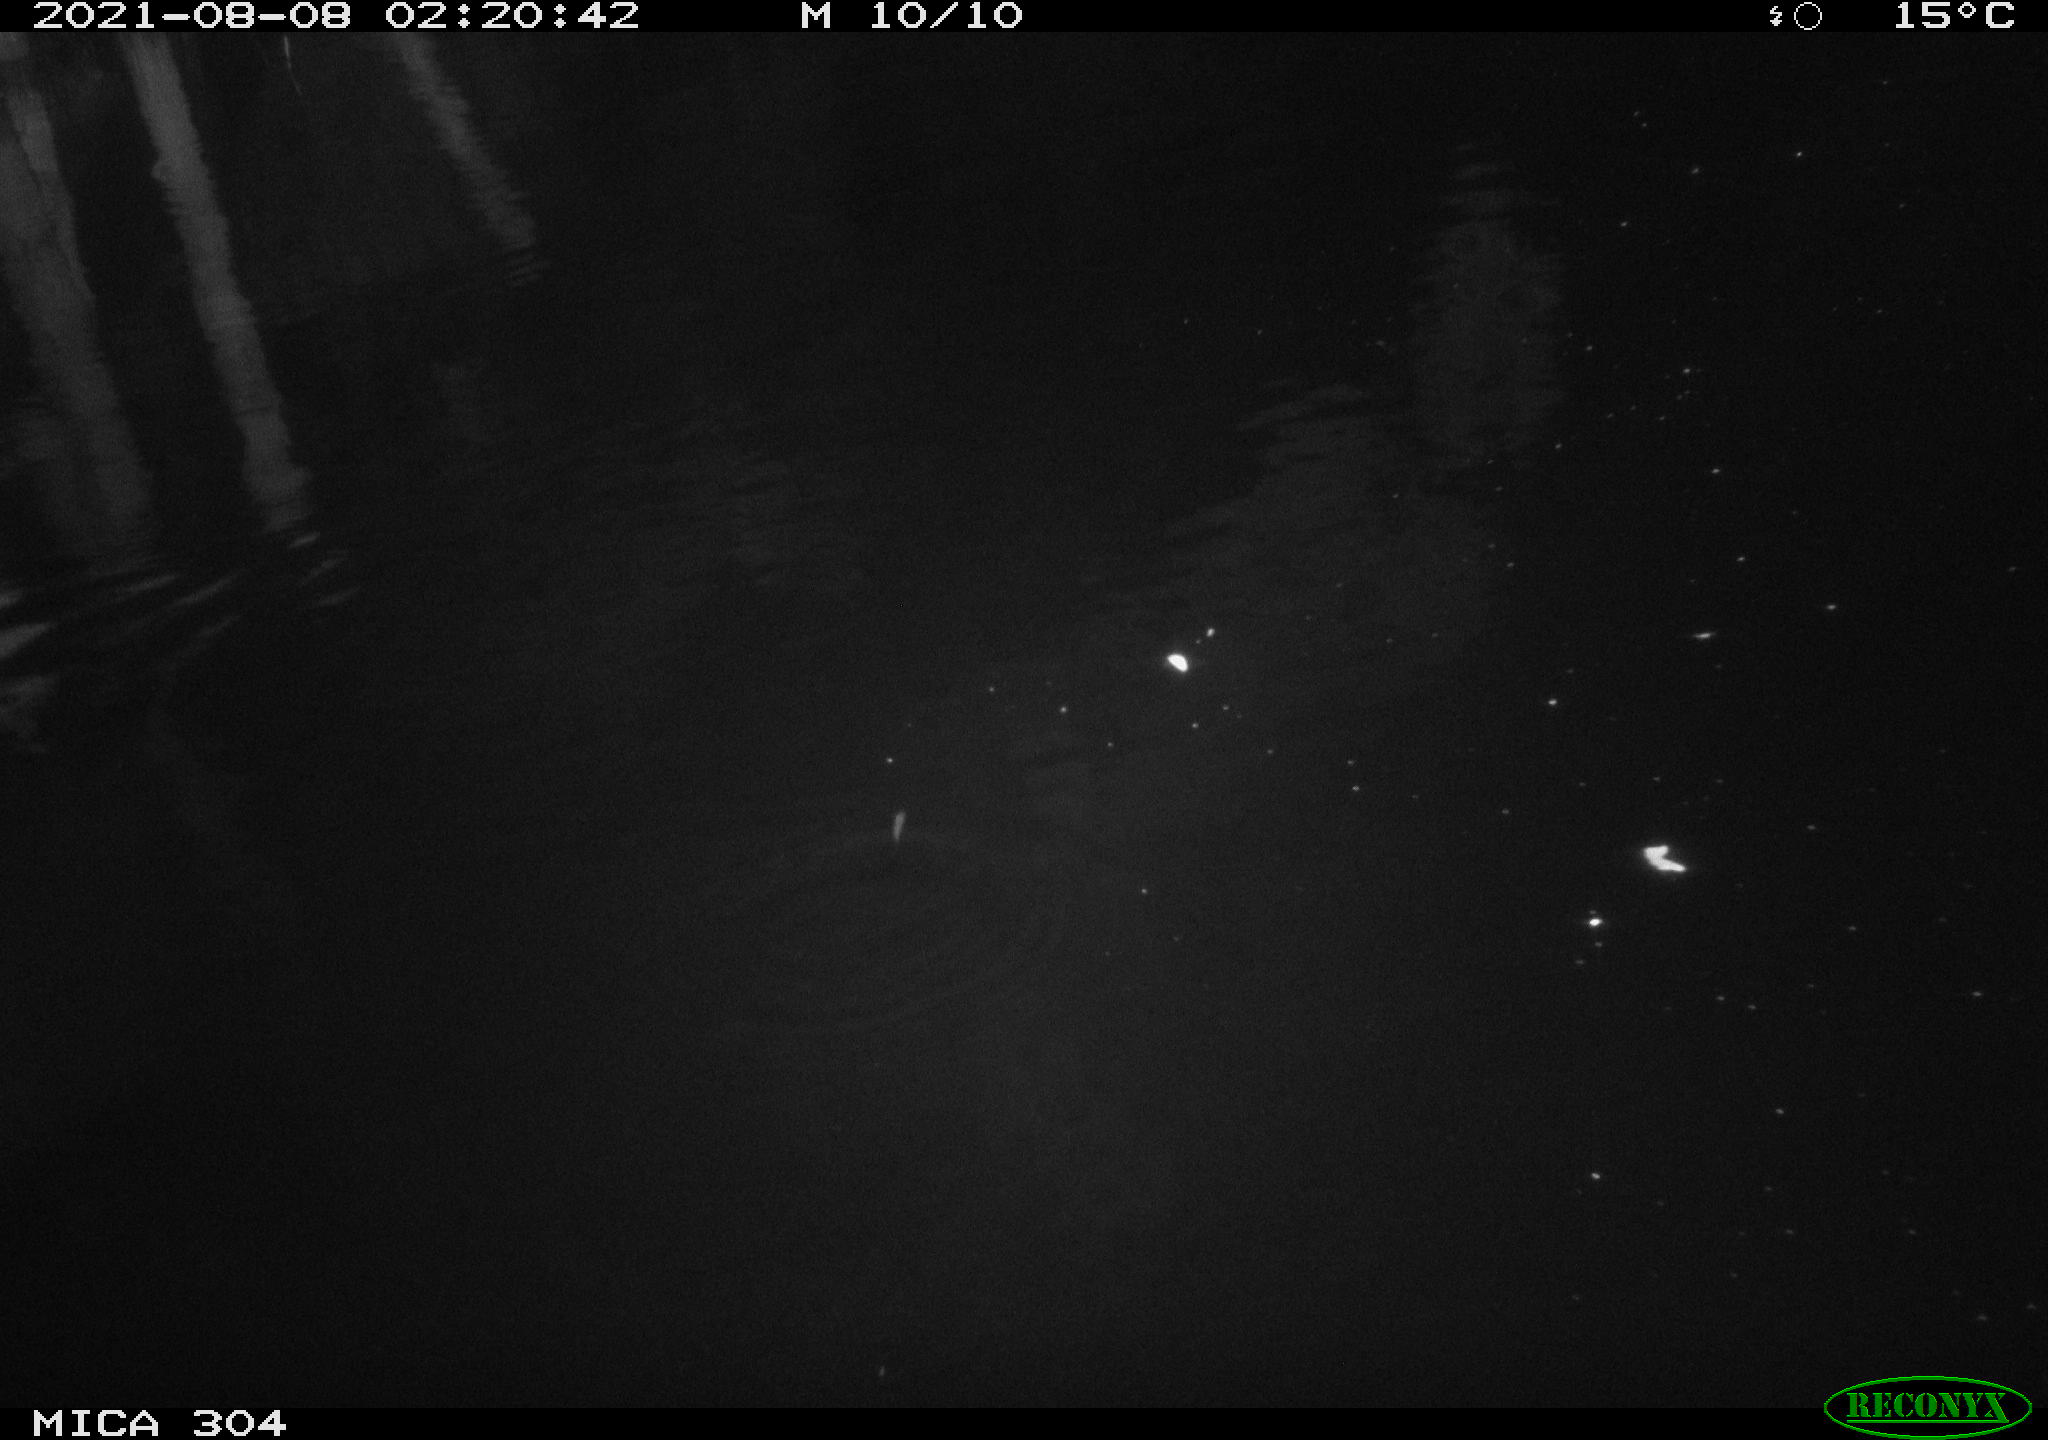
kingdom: Animalia
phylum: Chordata
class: Mammalia
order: Rodentia
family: Muridae
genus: Rattus
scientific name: Rattus norvegicus
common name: Brown rat
